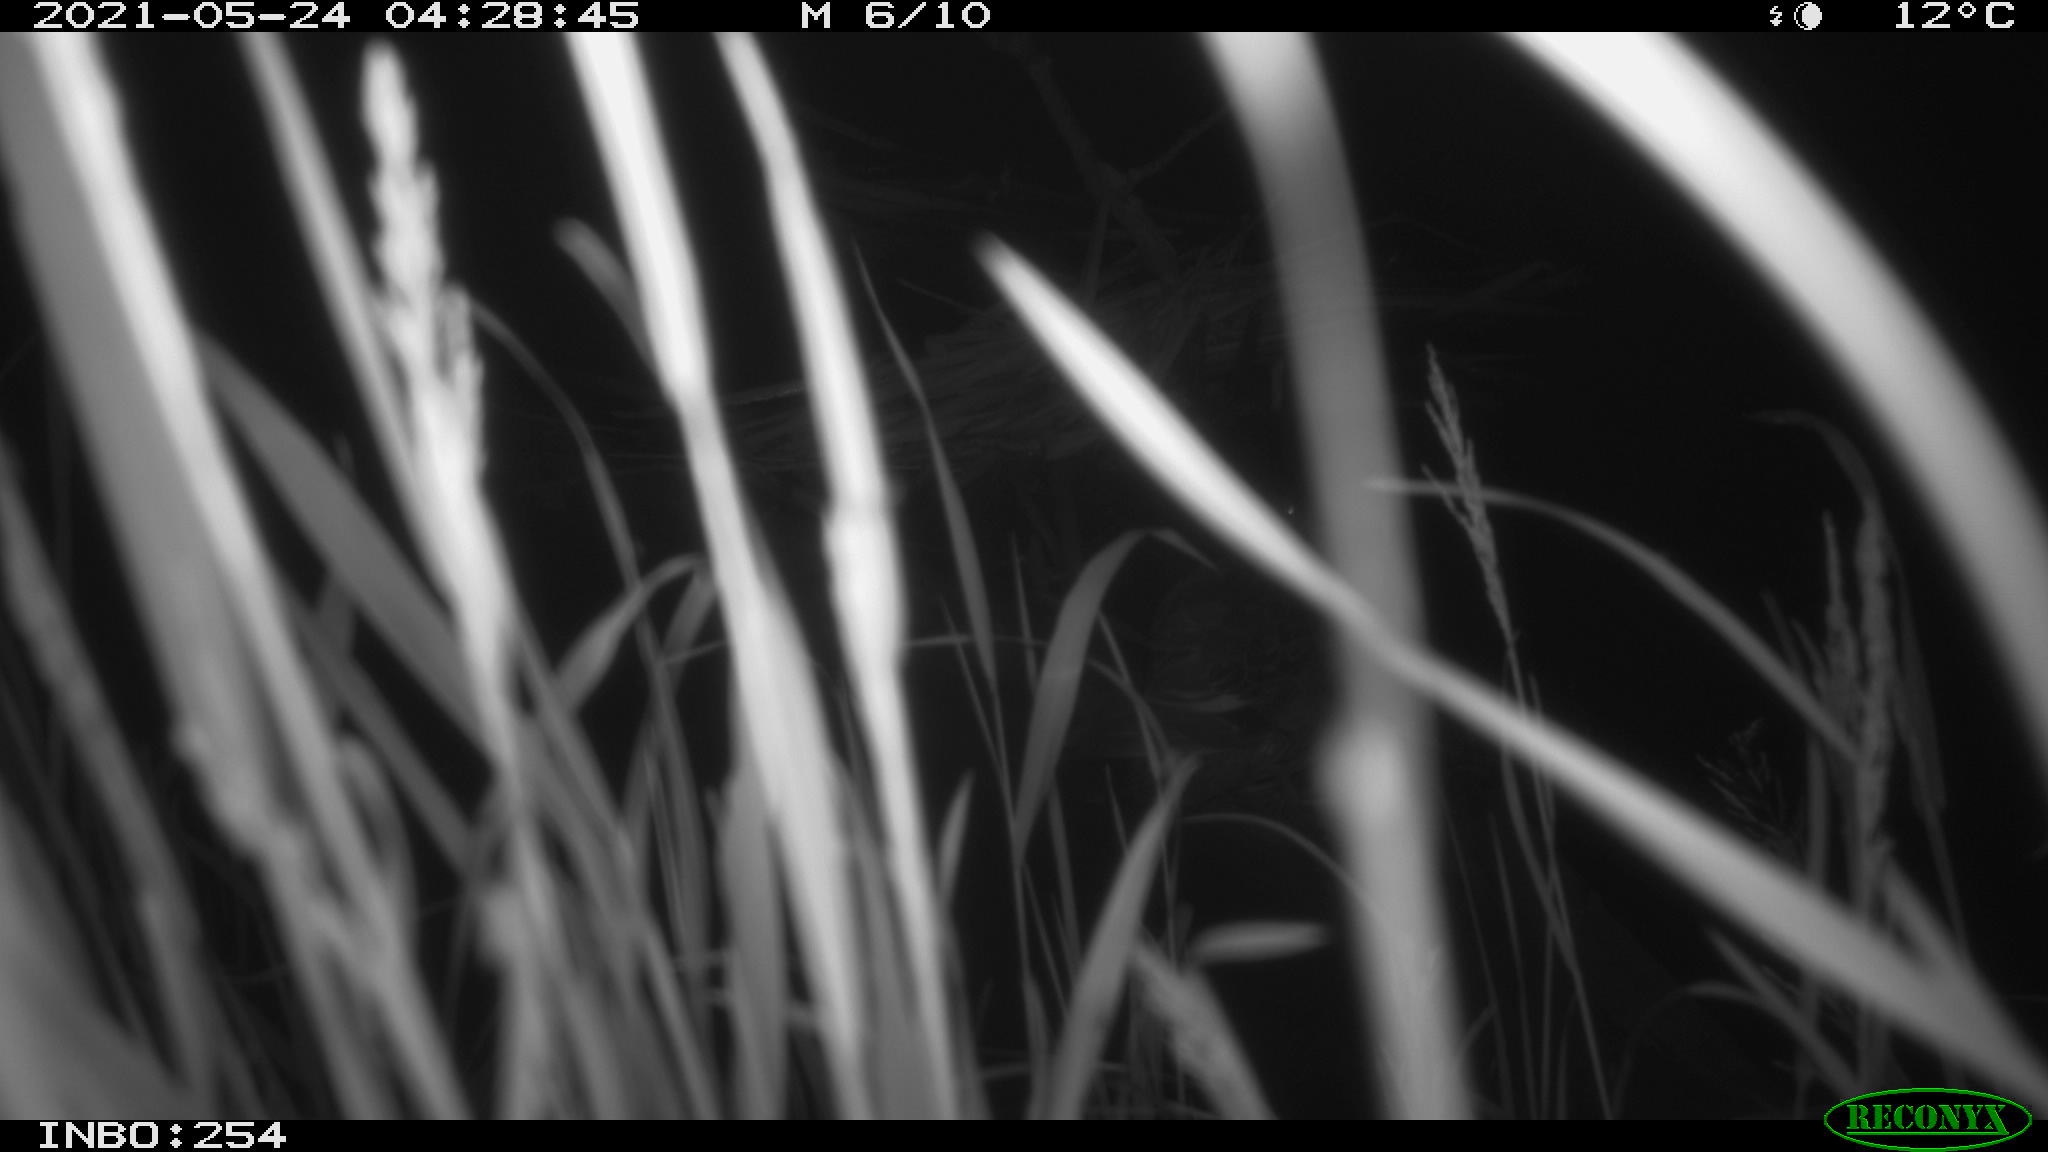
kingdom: Animalia
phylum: Chordata
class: Aves
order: Anseriformes
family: Anatidae
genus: Anas
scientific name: Anas platyrhynchos
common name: Mallard
